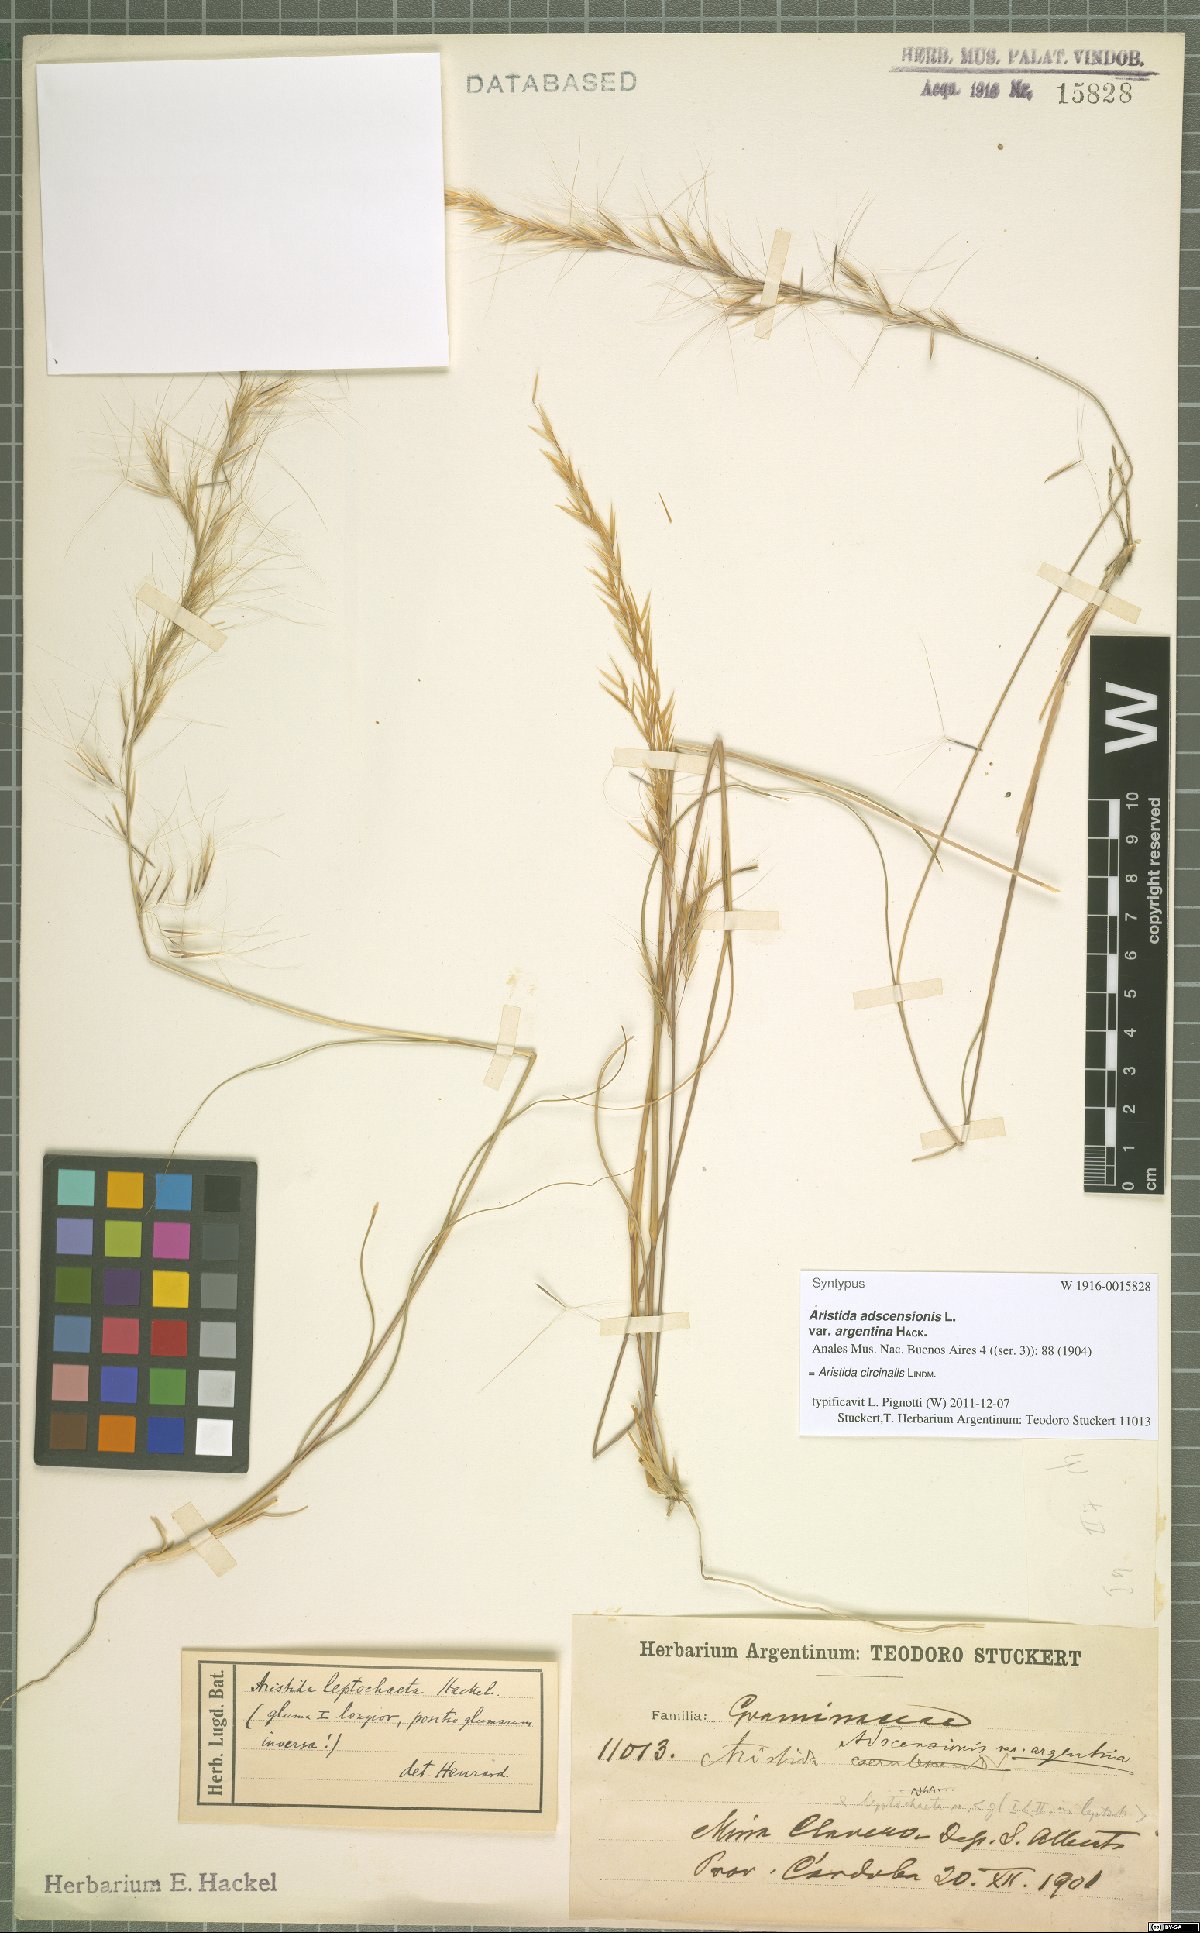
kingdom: Plantae
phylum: Tracheophyta
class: Liliopsida
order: Poales
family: Poaceae
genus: Aristida
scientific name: Aristida circinalis
